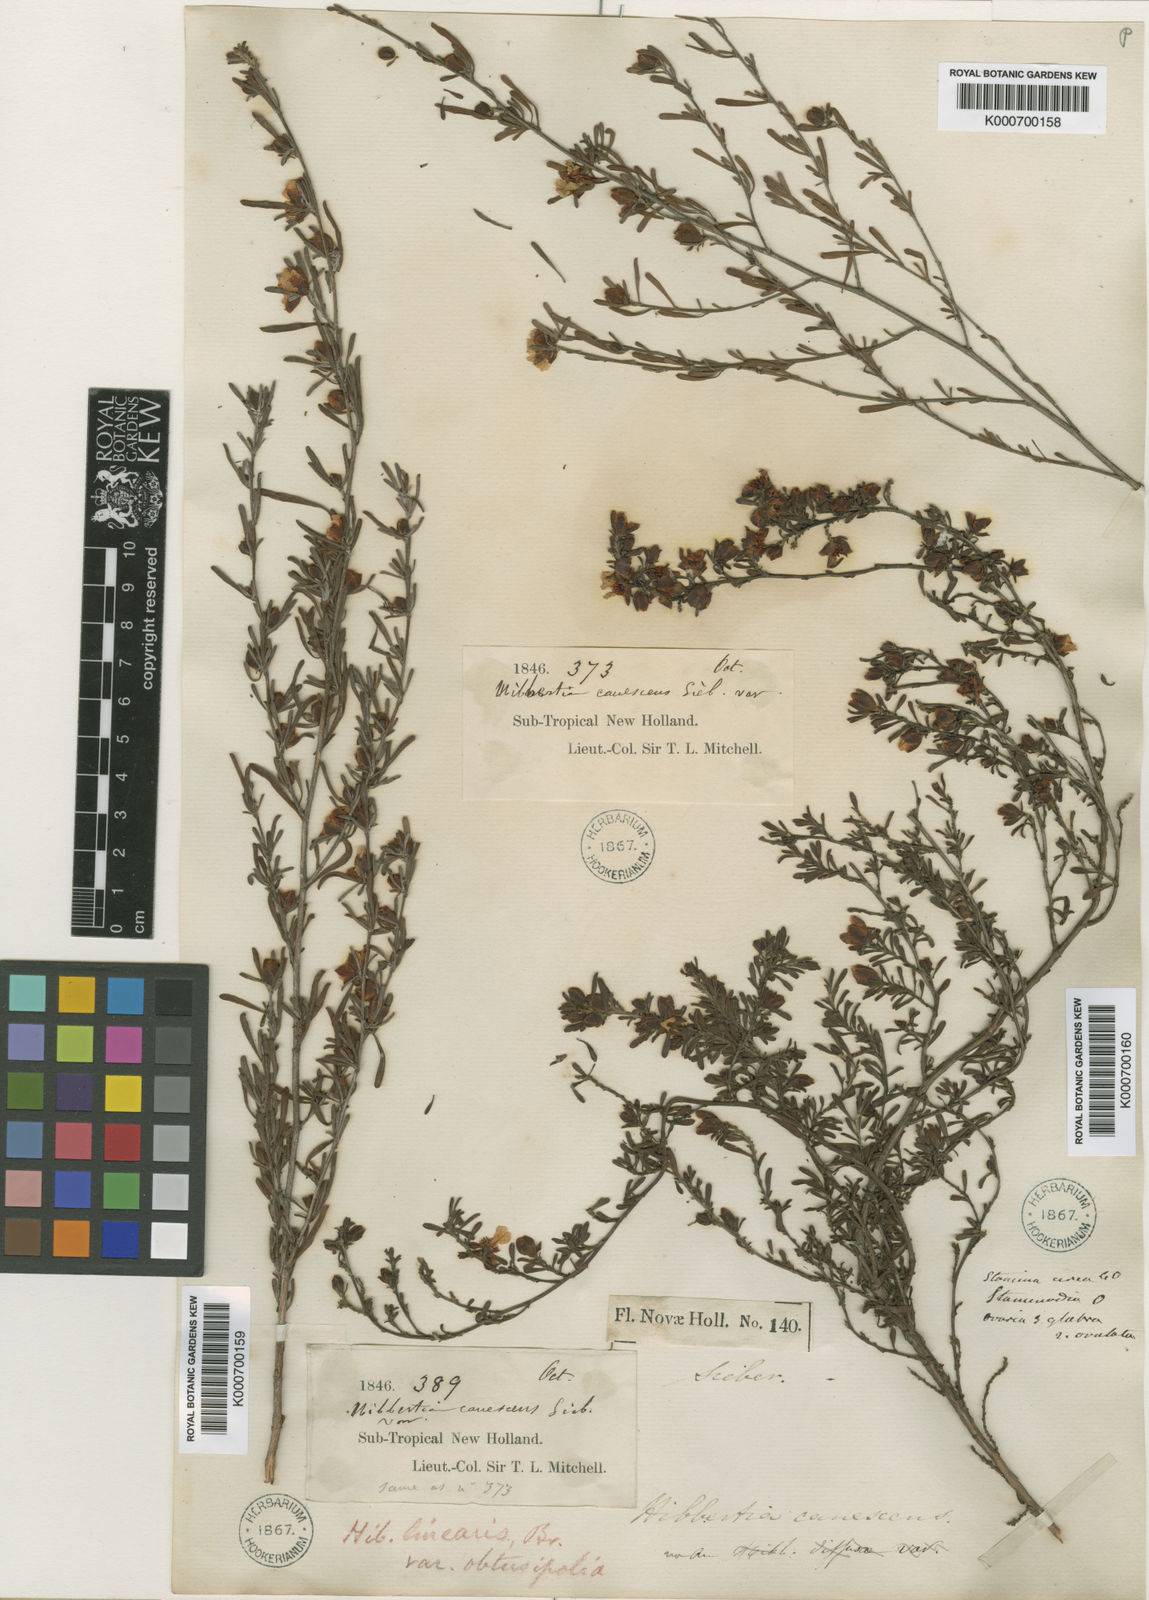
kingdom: Plantae
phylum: Tracheophyta
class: Magnoliopsida
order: Dilleniales
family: Dilleniaceae
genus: Hibbertia
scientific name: Hibbertia obtusifolia
